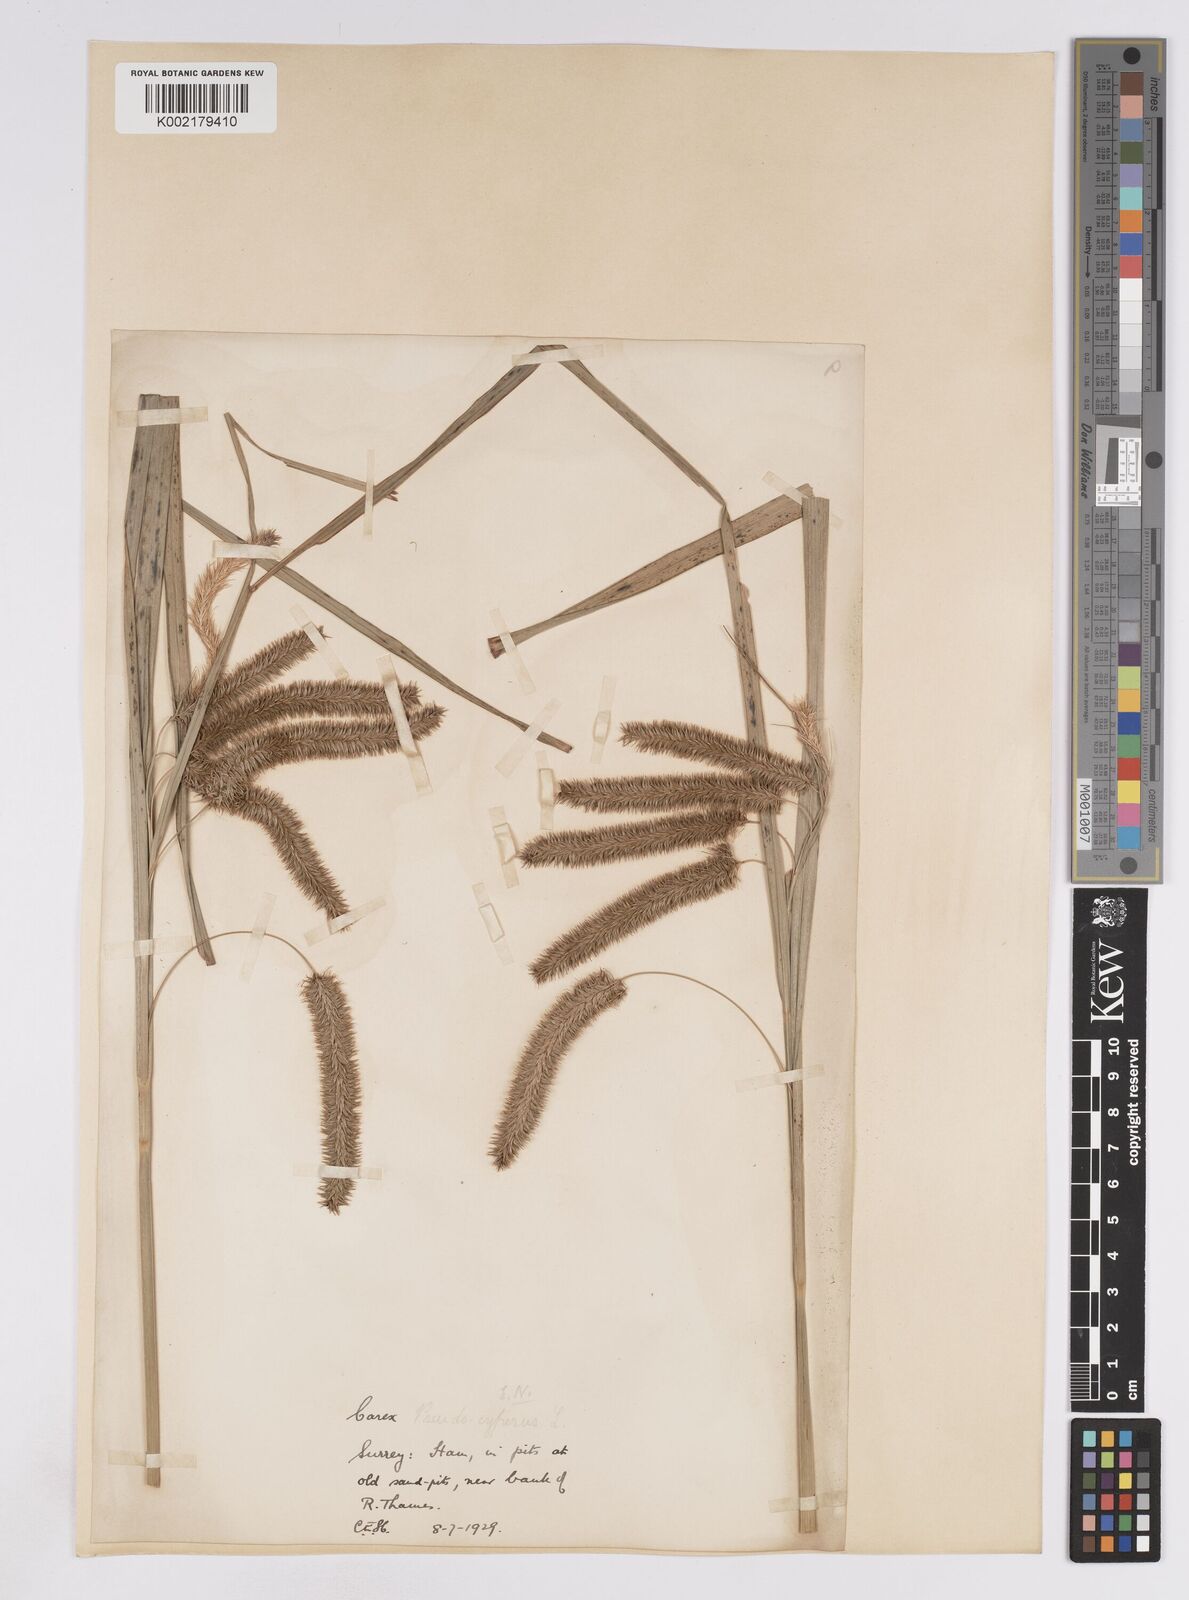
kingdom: Plantae
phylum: Tracheophyta
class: Liliopsida
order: Poales
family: Cyperaceae
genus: Carex
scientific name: Carex pseudocyperus
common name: Cyperus sedge
